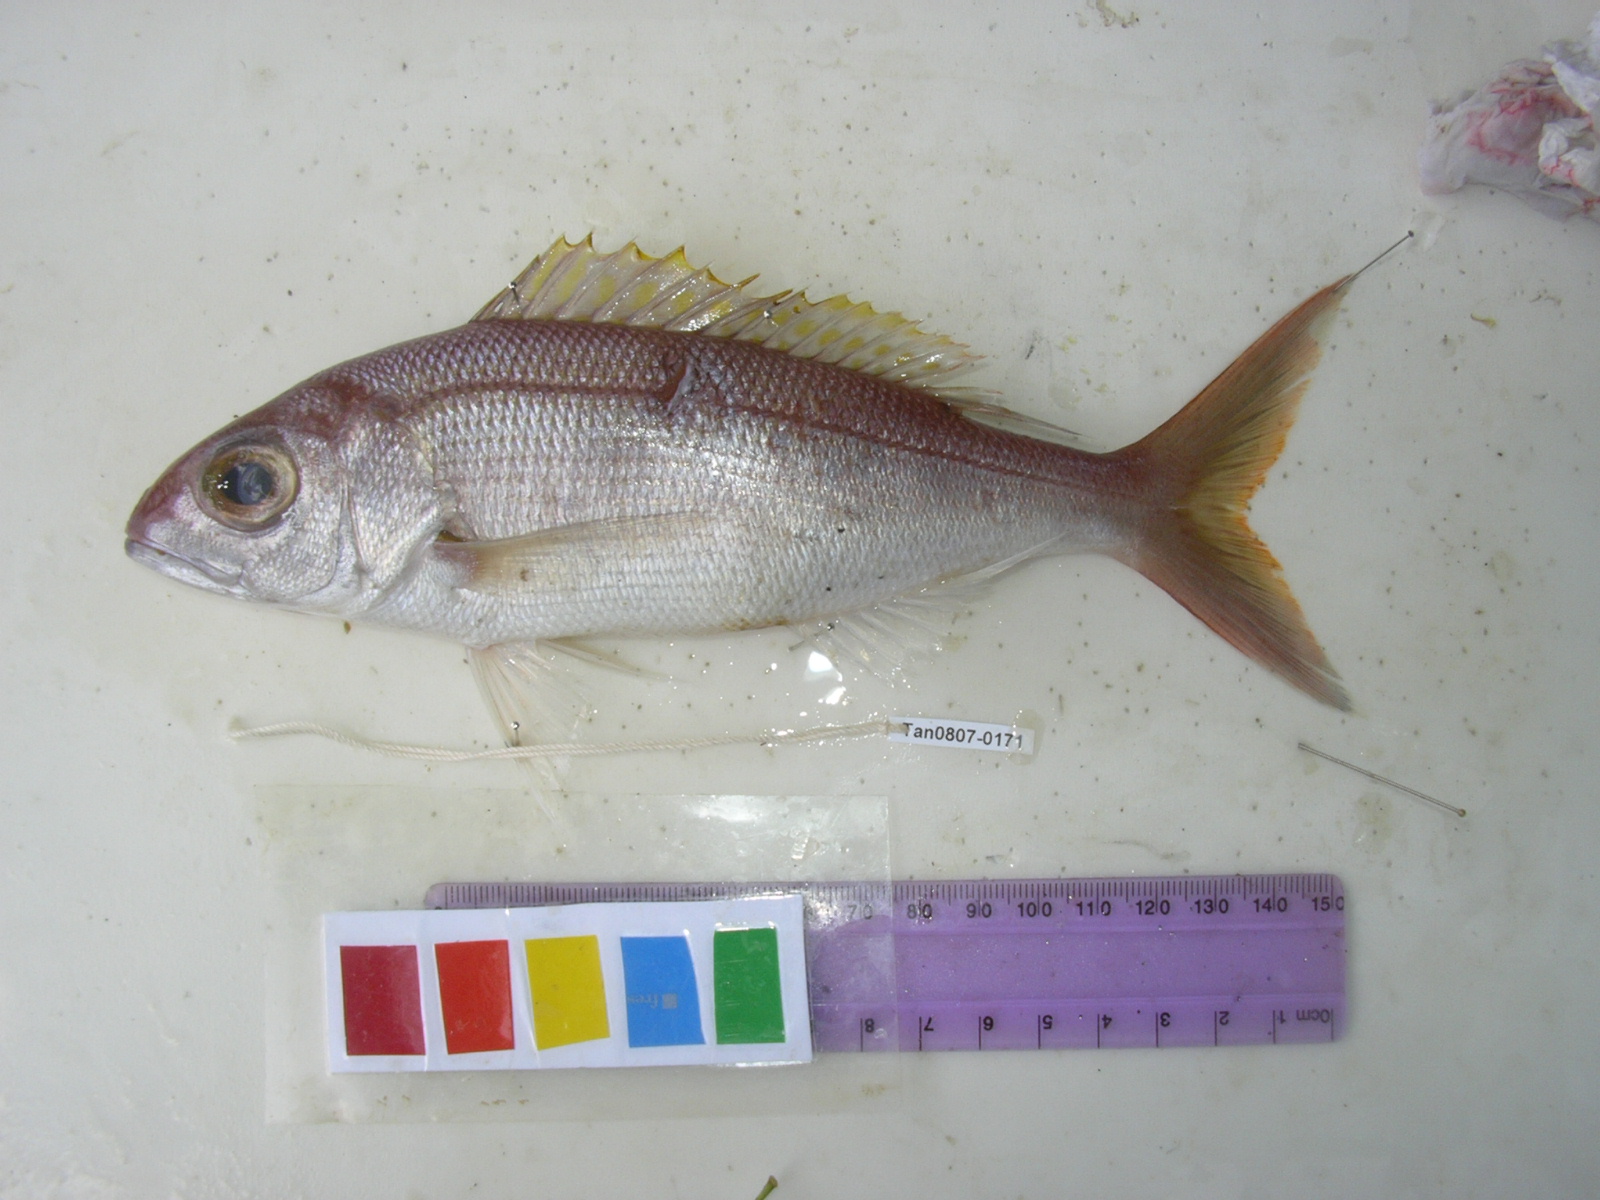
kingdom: Animalia
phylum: Chordata
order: Perciformes
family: Lutjanidae
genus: Aphareus
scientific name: Aphareus furca
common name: Smalltooth jobfish
